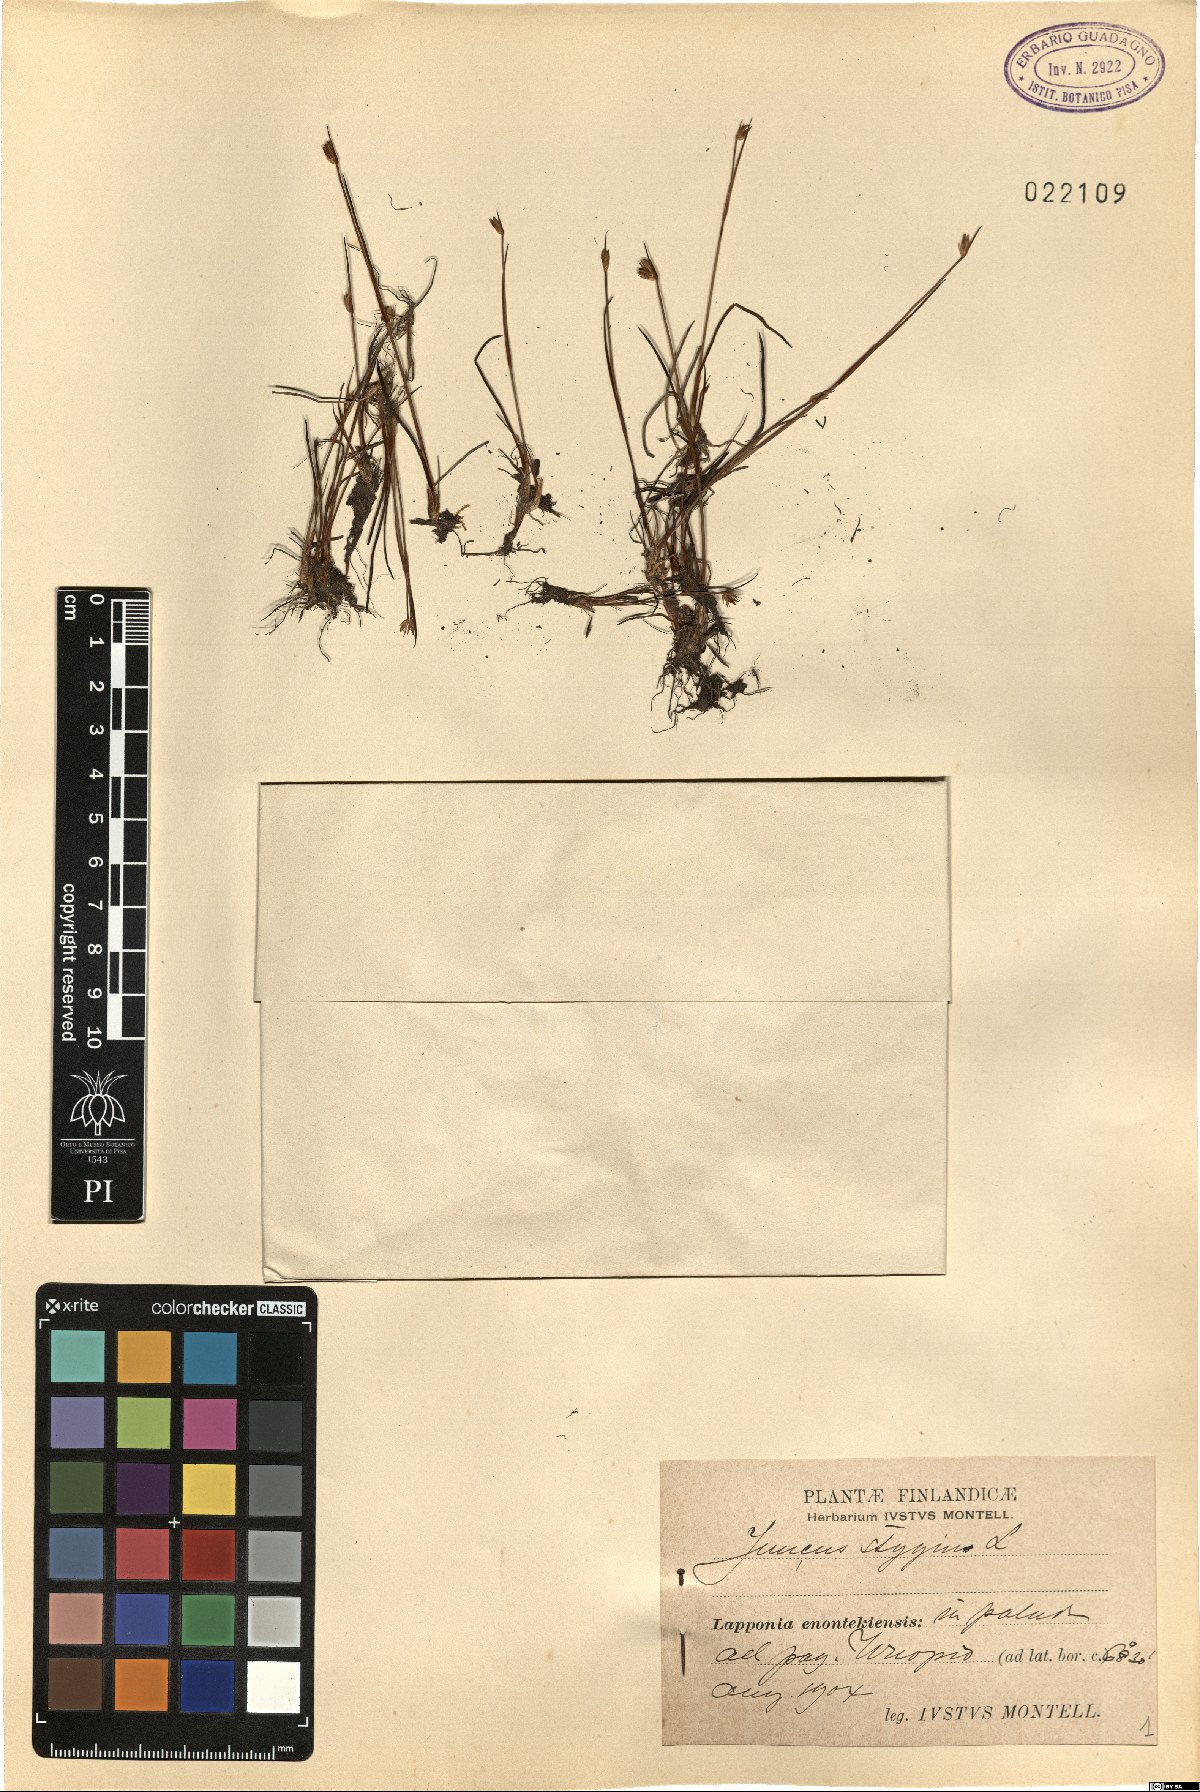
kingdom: Plantae
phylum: Tracheophyta
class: Liliopsida
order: Poales
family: Juncaceae
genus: Juncus
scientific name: Juncus stygius
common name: Bog rush
